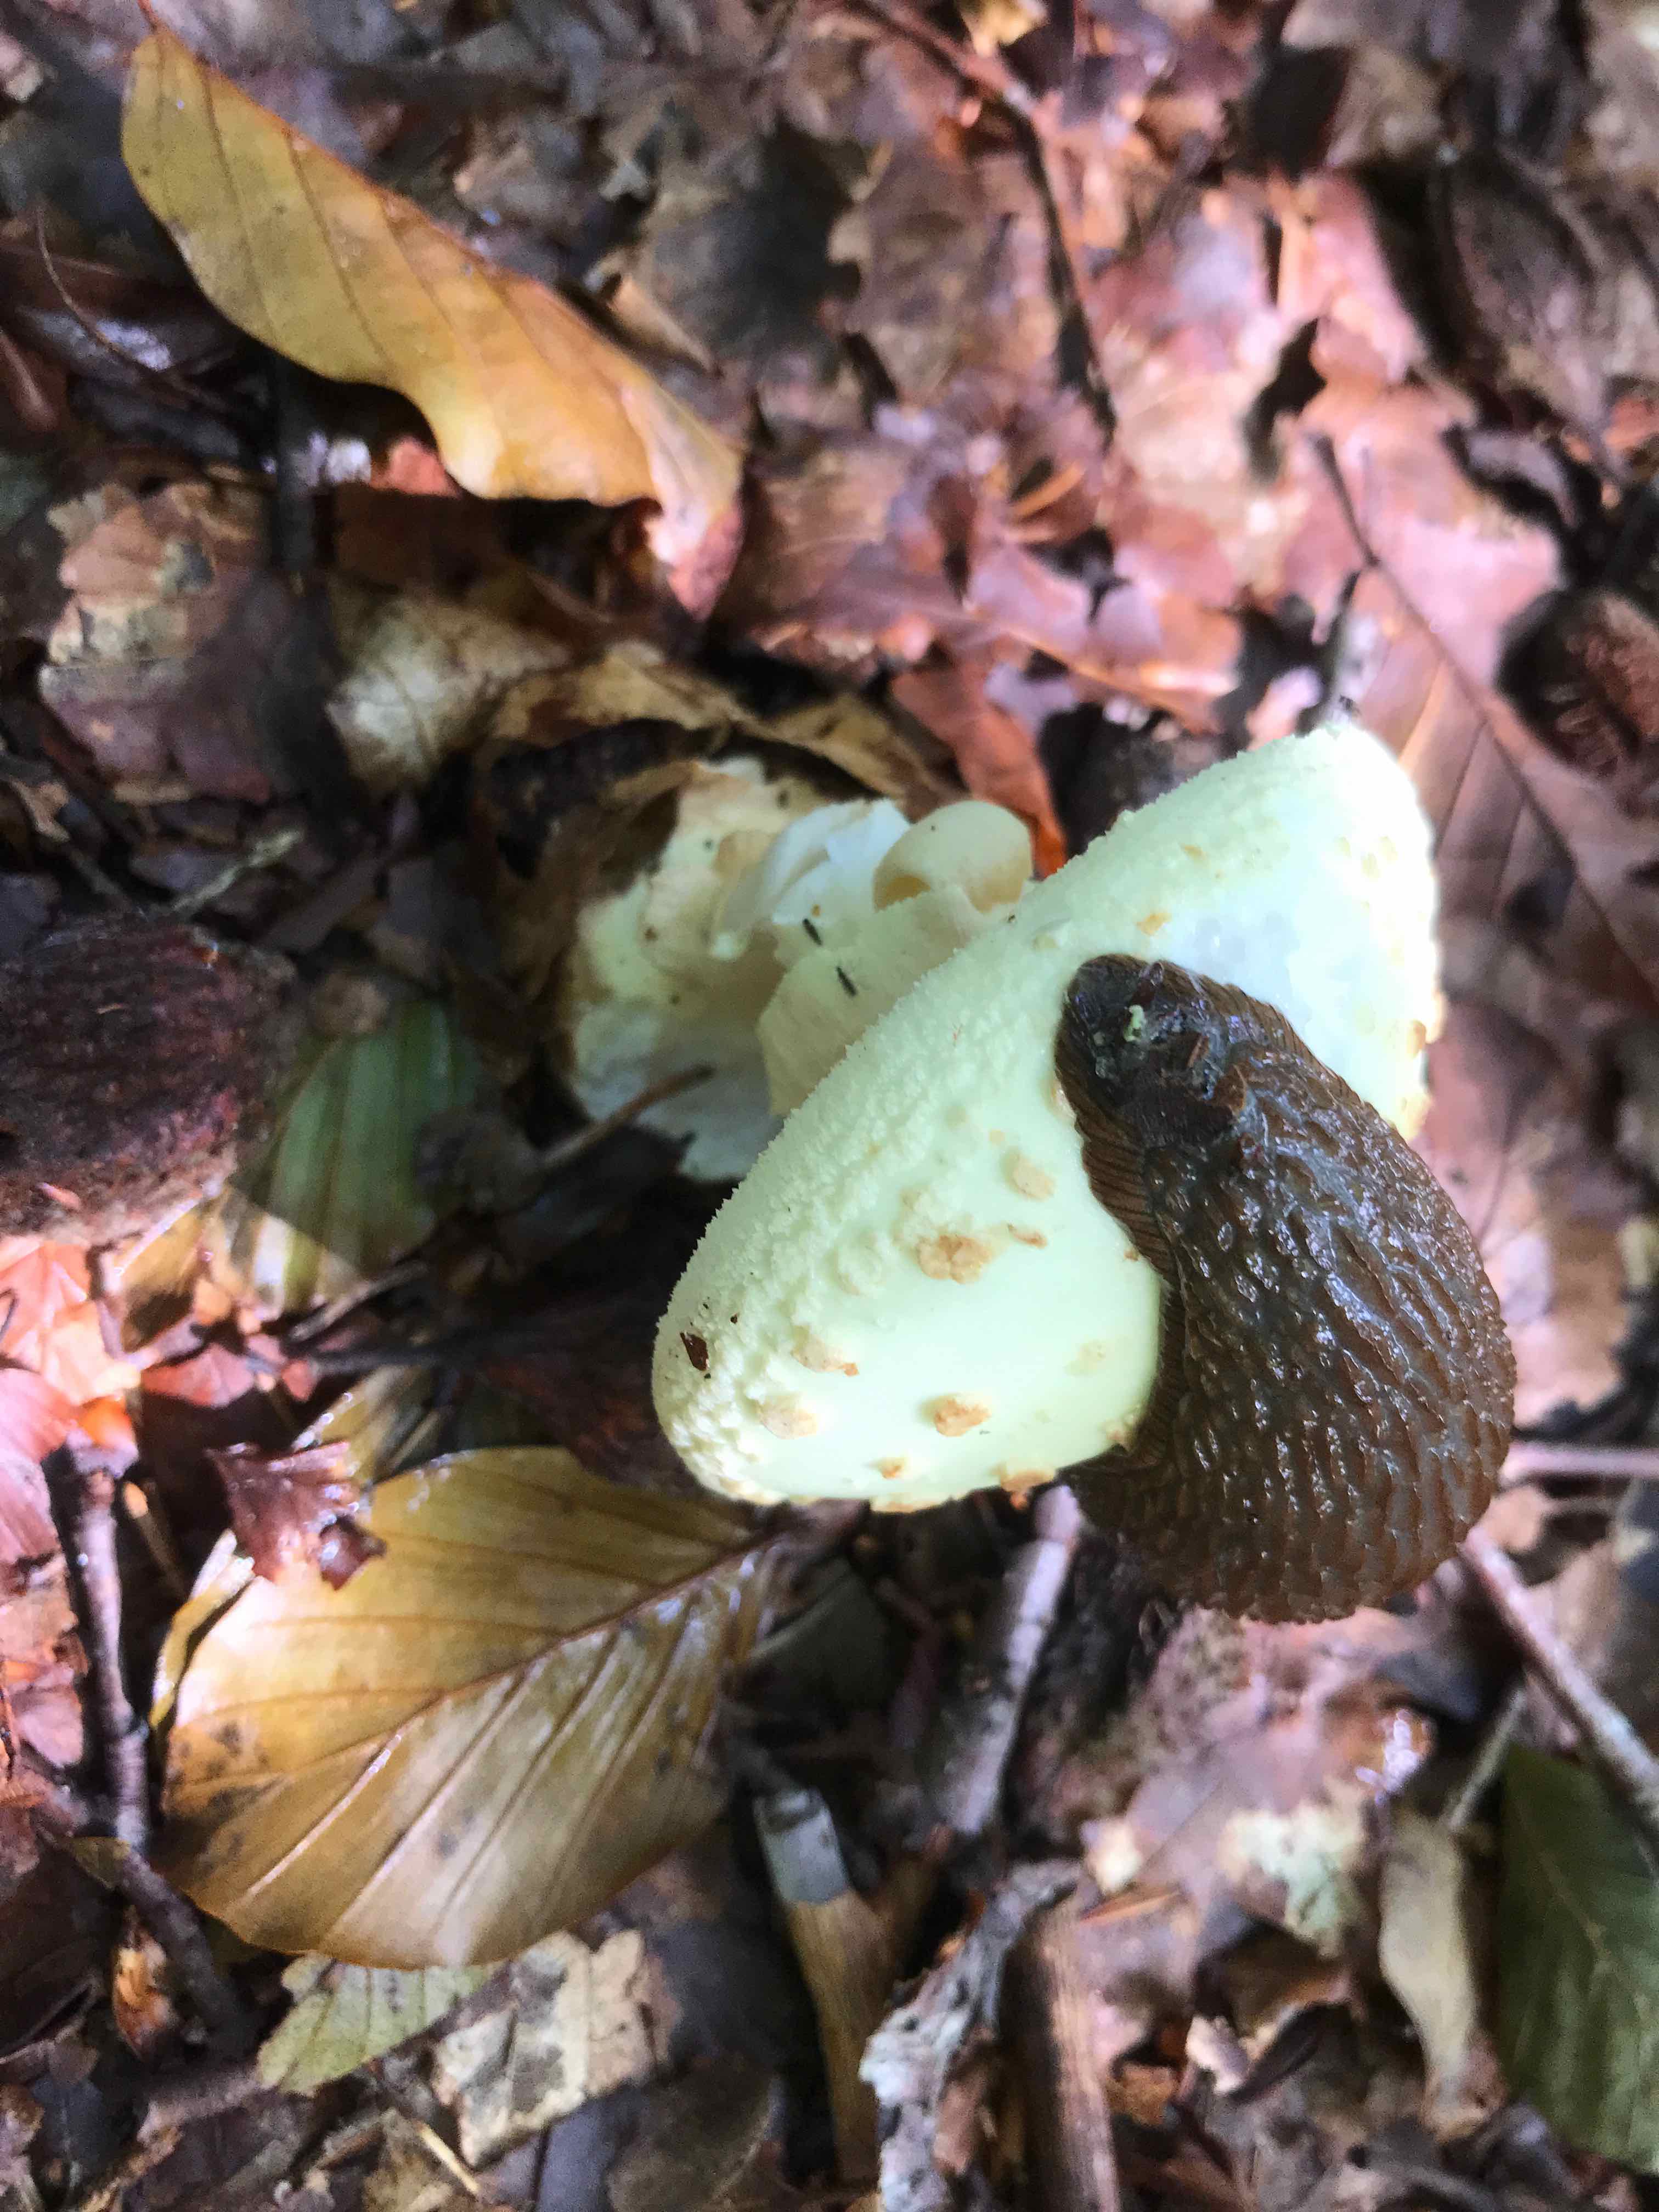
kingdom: Fungi
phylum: Basidiomycota
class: Agaricomycetes
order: Agaricales
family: Amanitaceae
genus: Amanita
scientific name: Amanita citrina
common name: kugleknoldet fluesvamp
